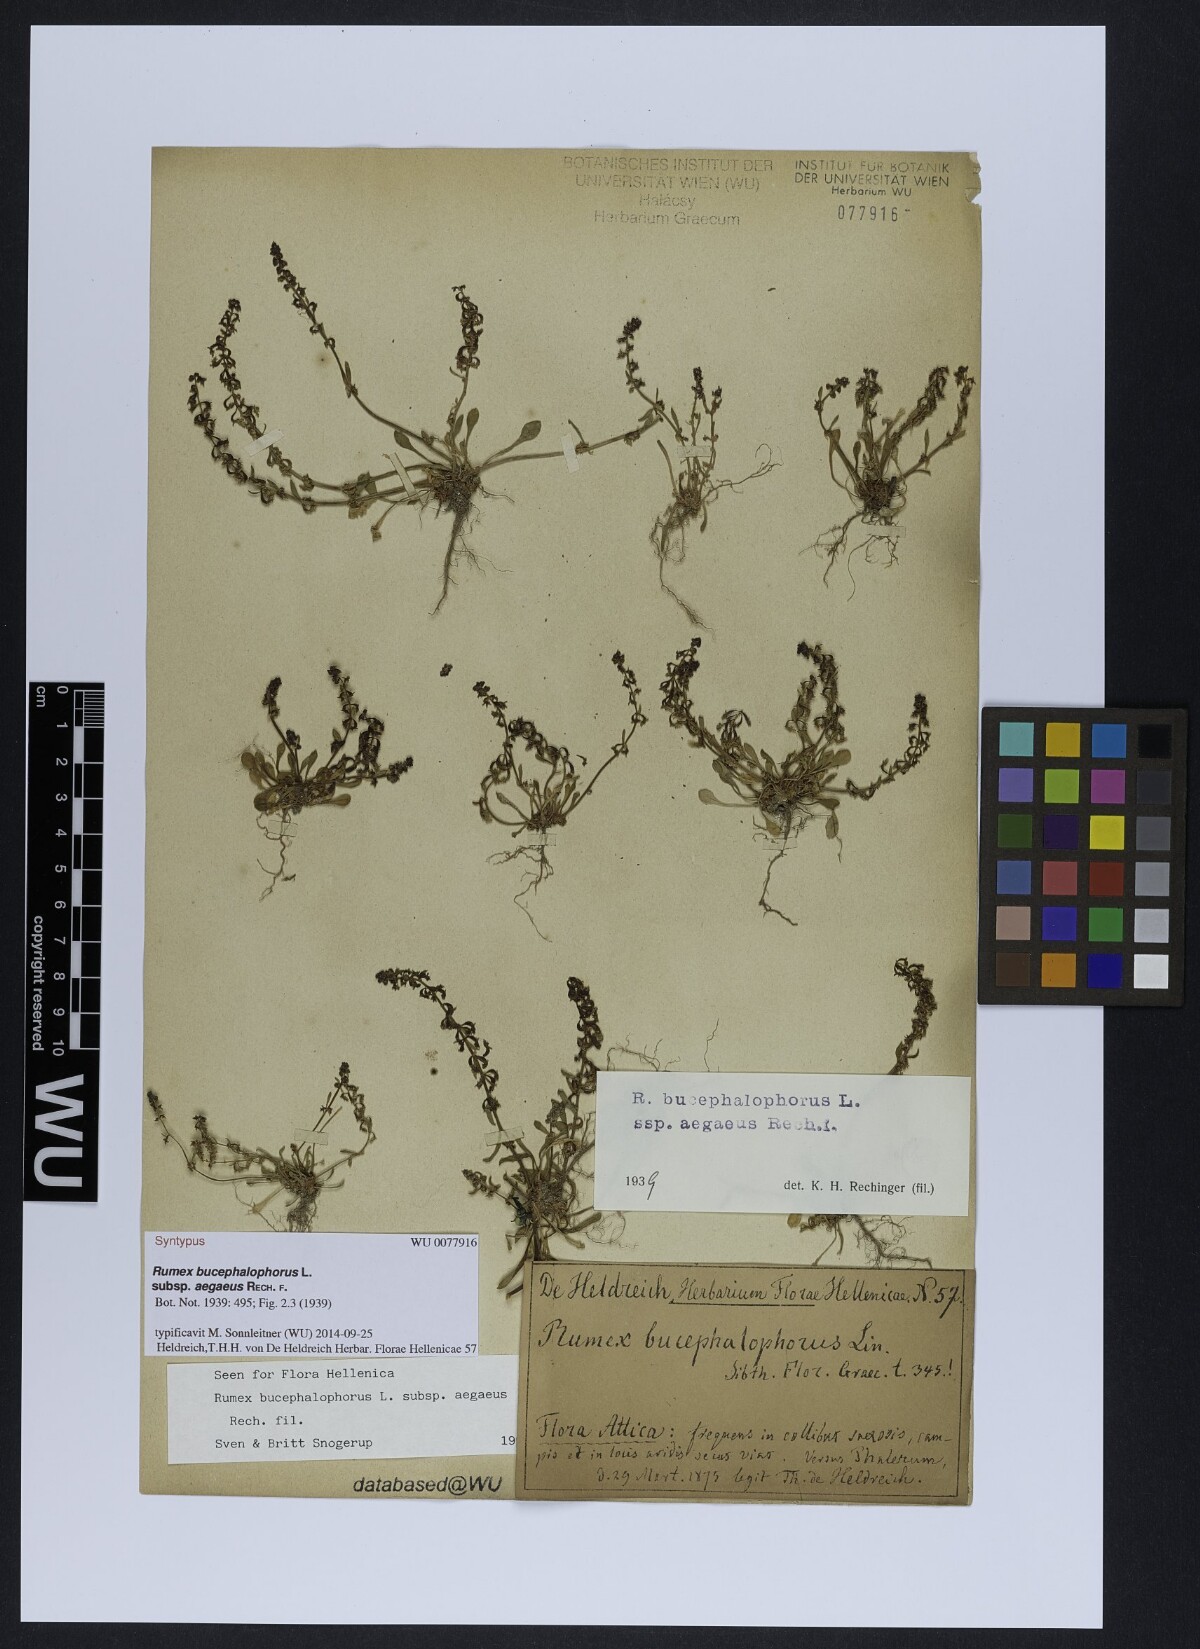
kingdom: Plantae
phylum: Tracheophyta
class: Magnoliopsida
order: Caryophyllales
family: Polygonaceae
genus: Rumex
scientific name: Rumex bucephalophorus
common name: Red dock
